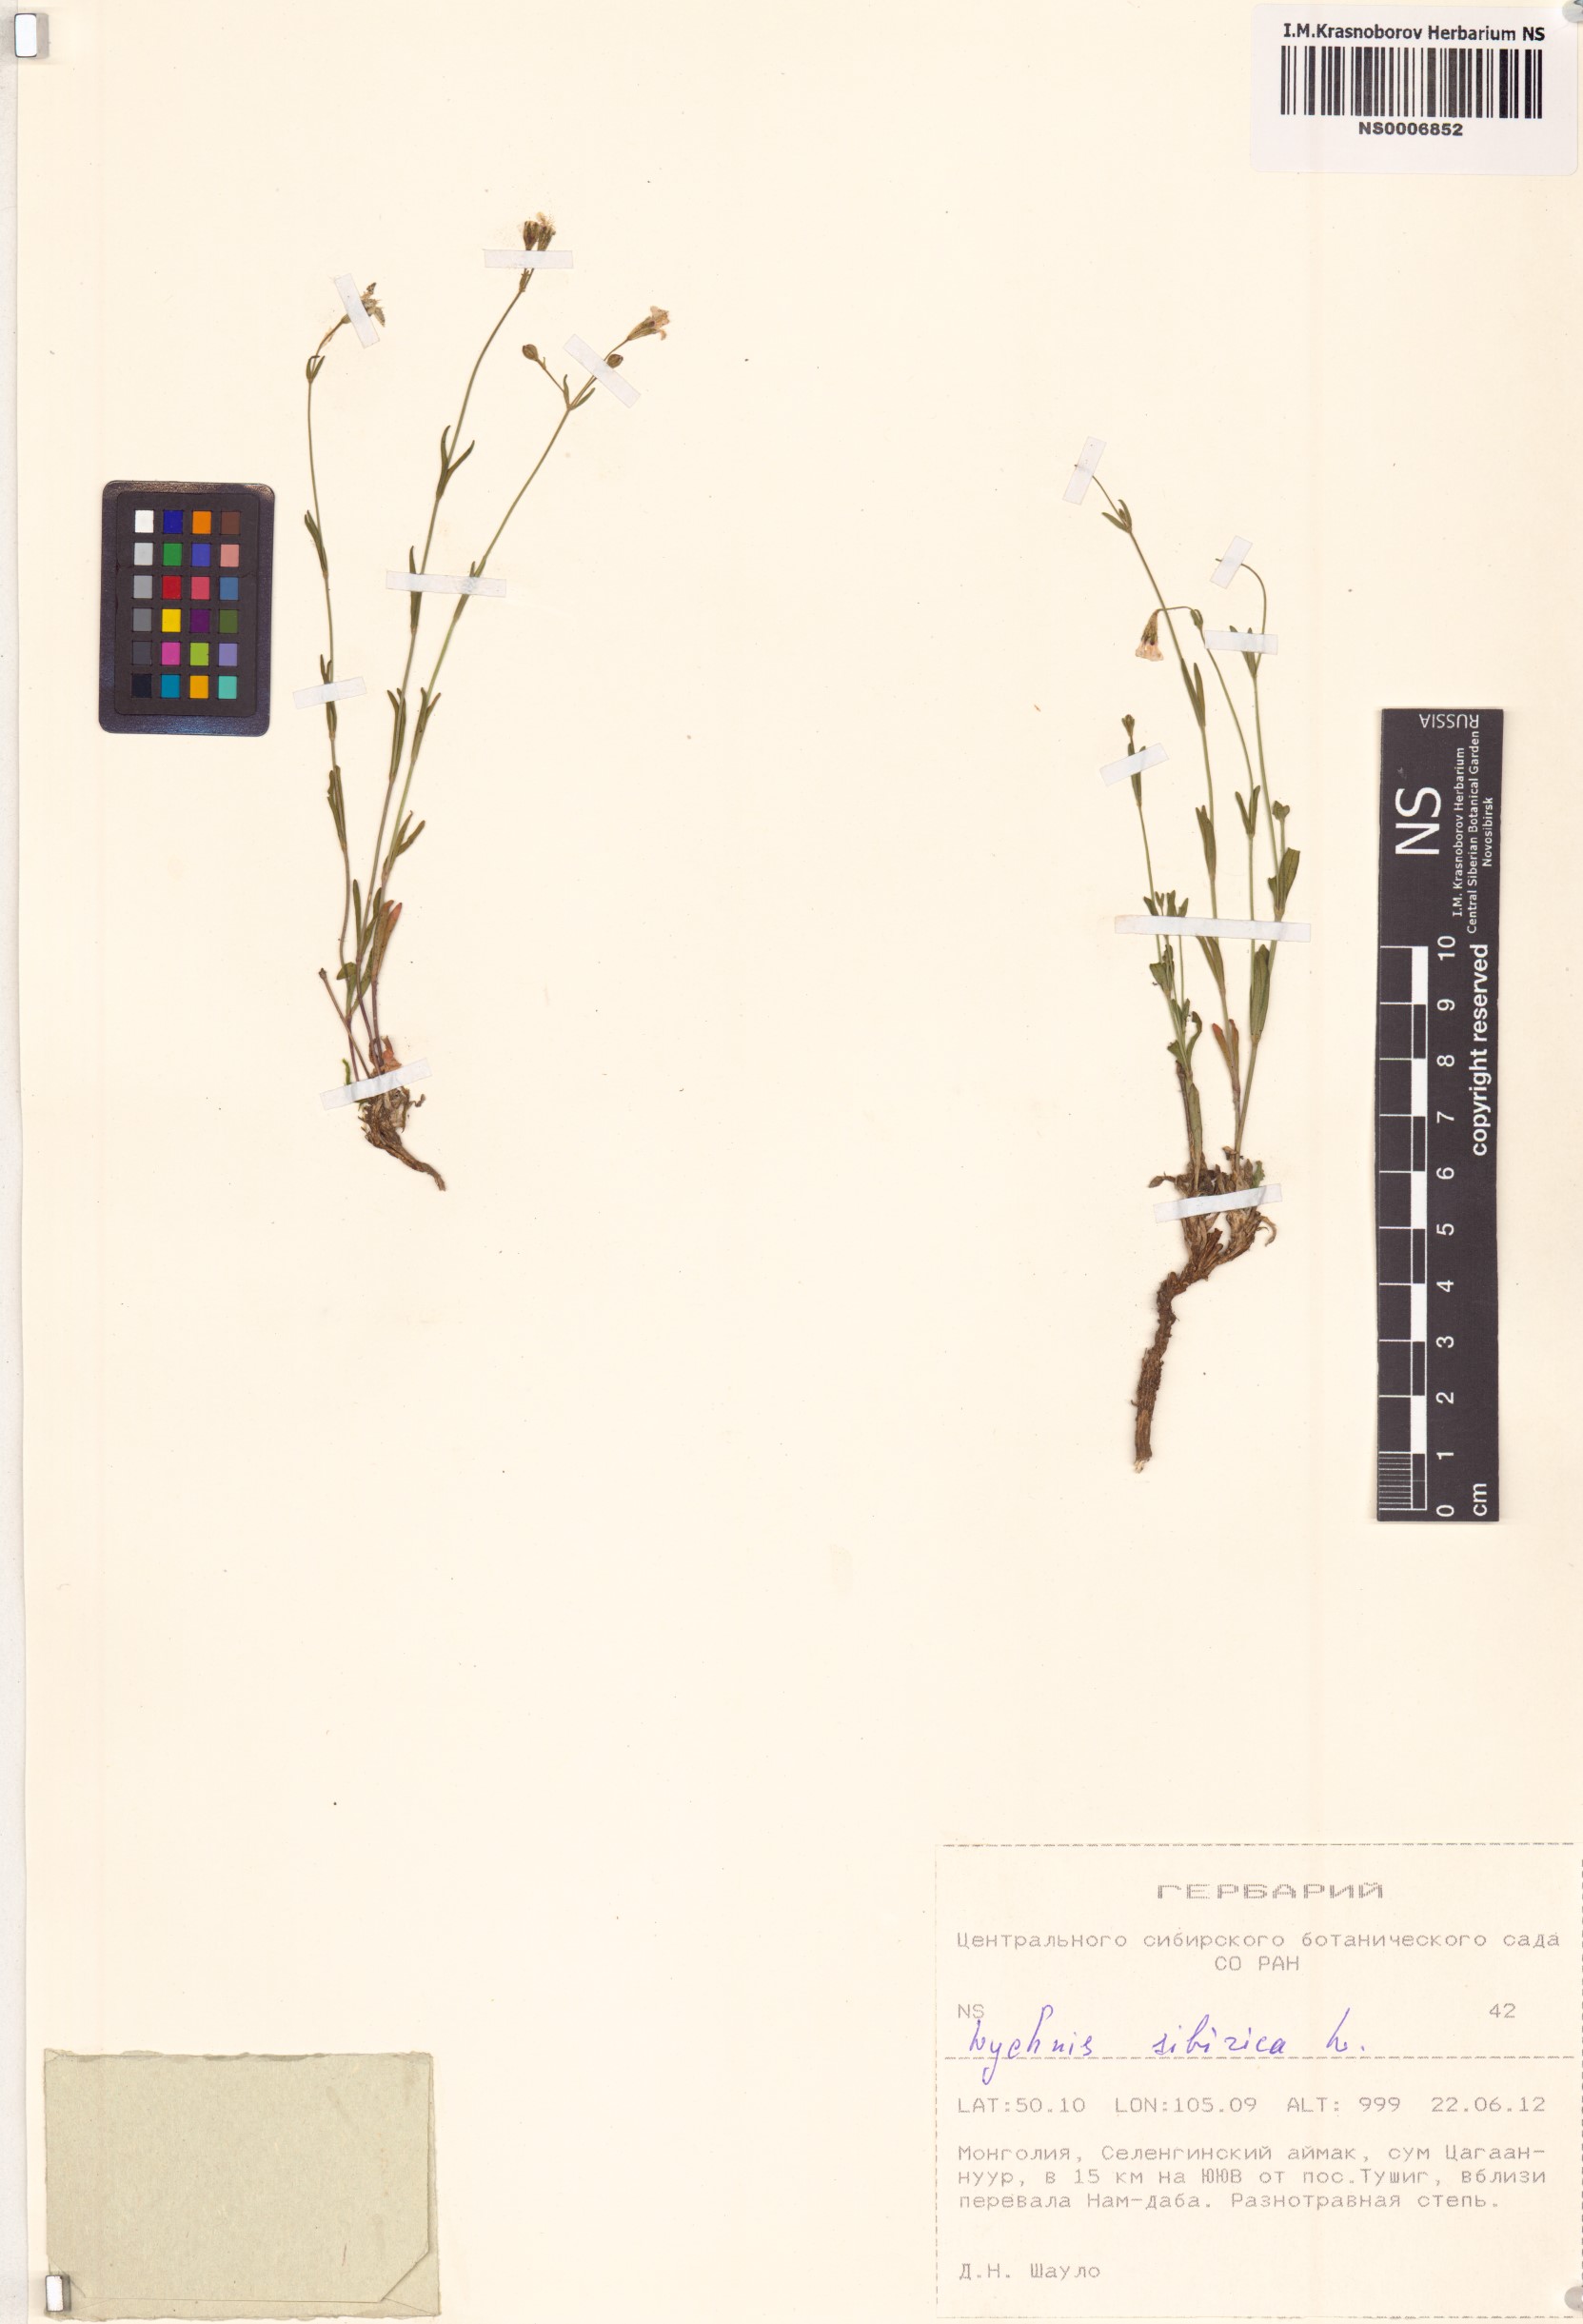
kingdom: Plantae
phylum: Tracheophyta
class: Magnoliopsida
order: Caryophyllales
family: Caryophyllaceae
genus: Silene
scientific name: Silene orientalimongolica
